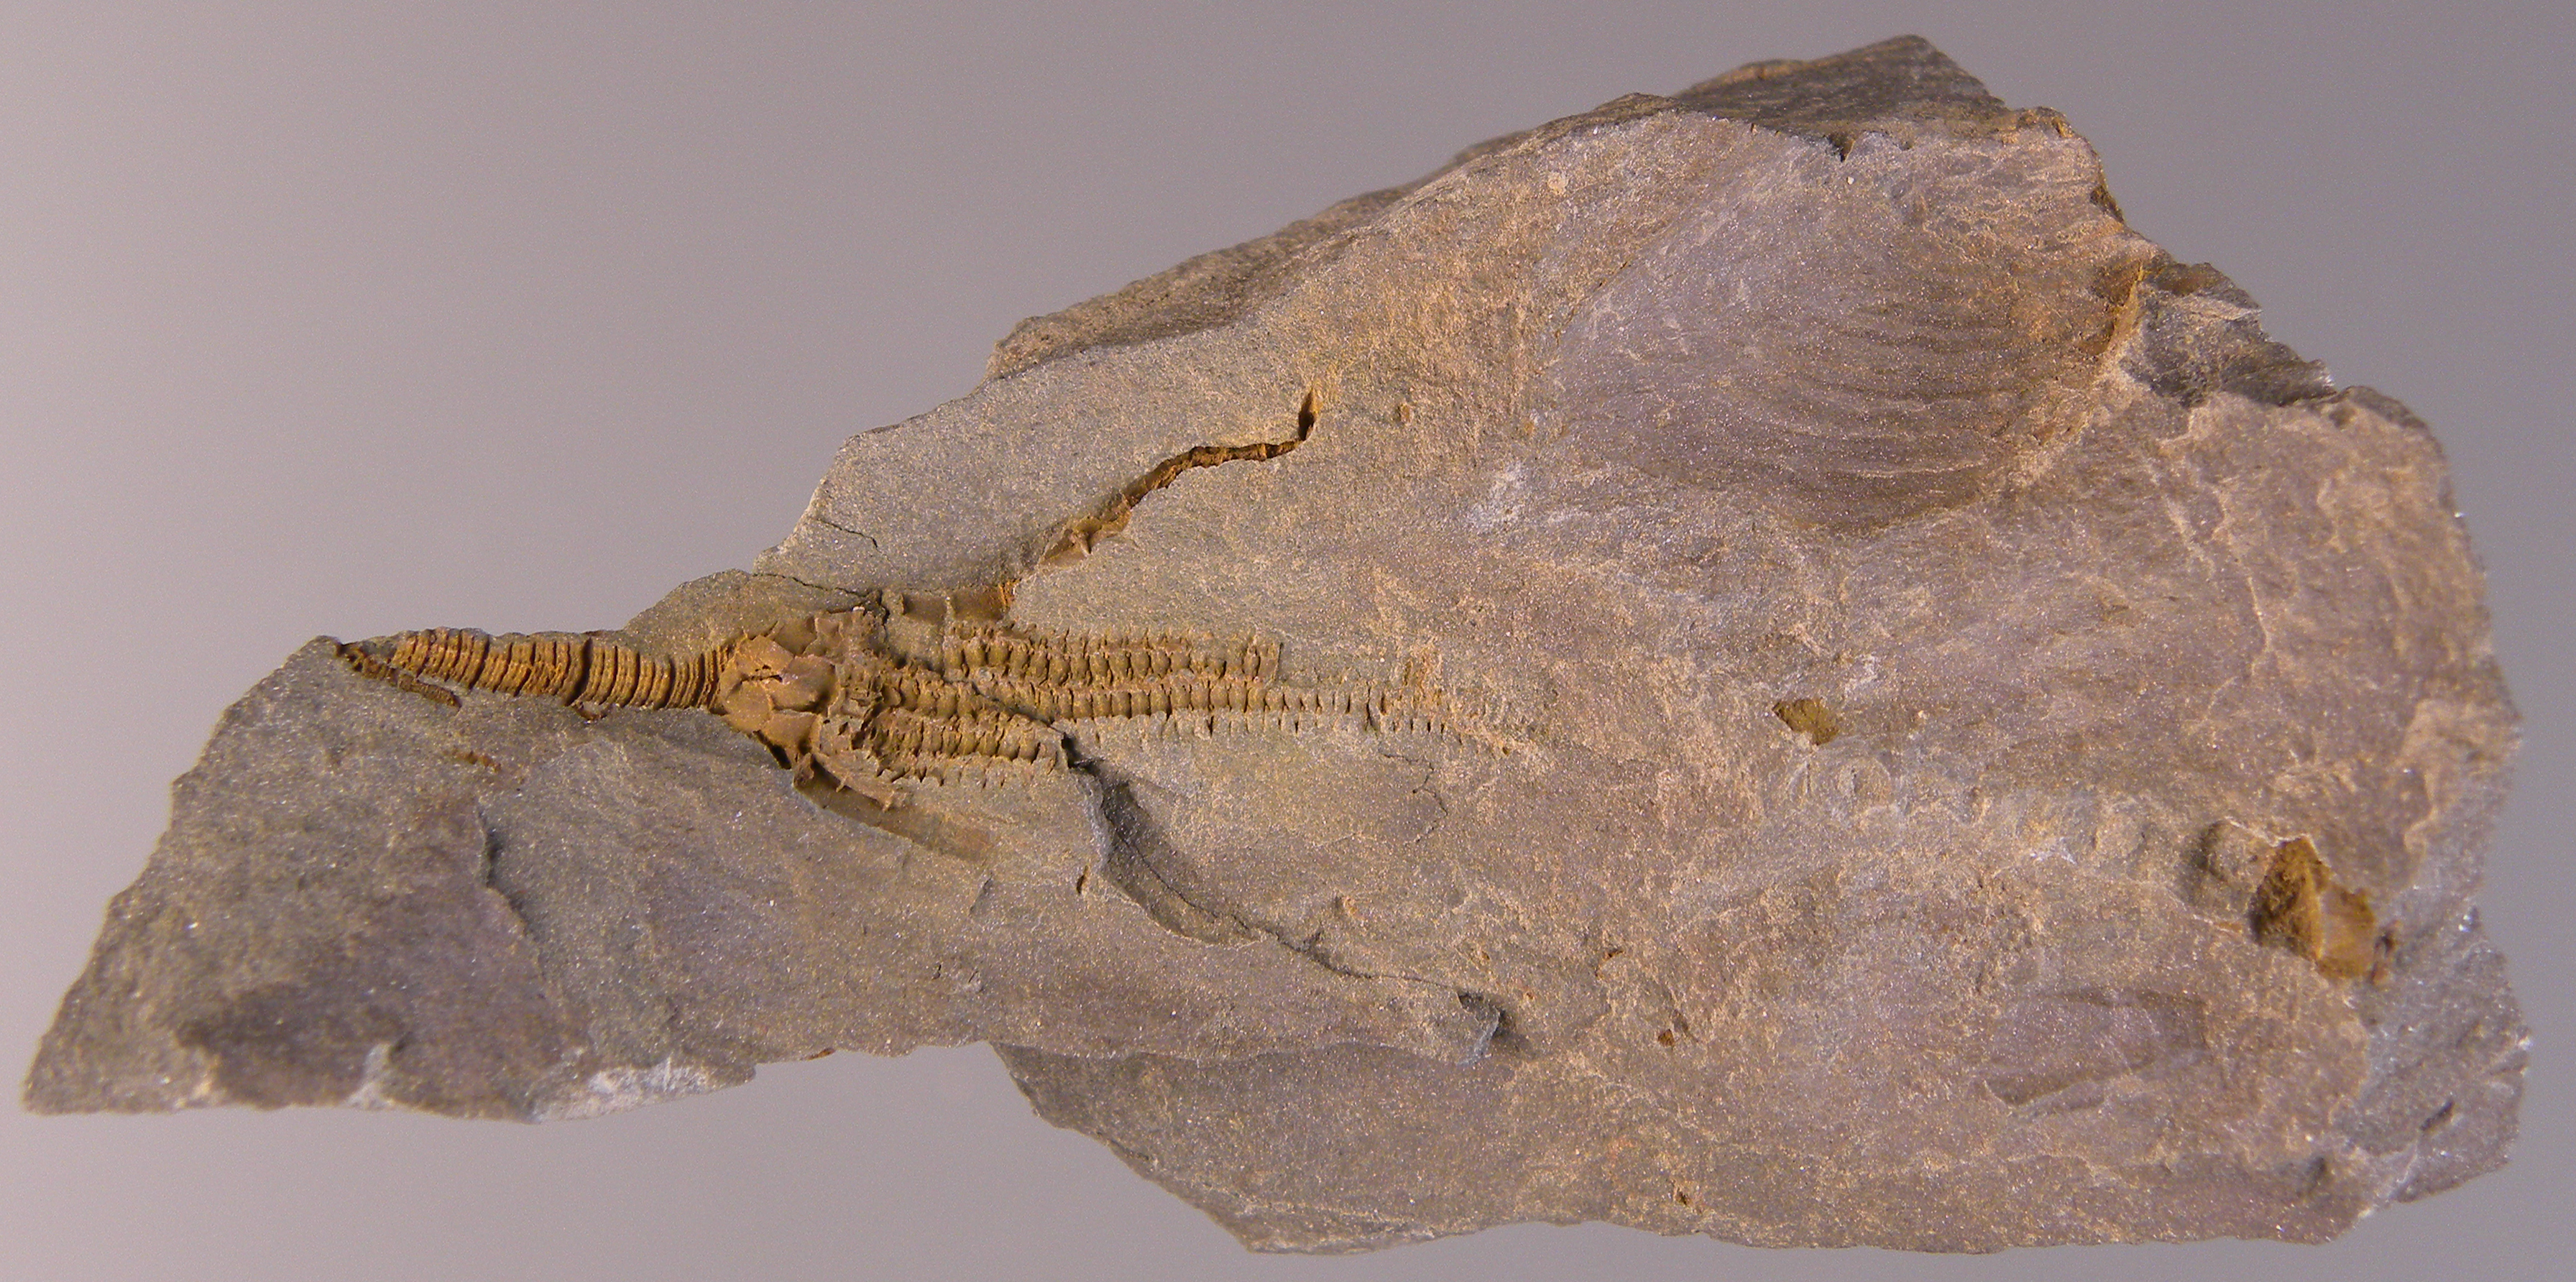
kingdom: Animalia
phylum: Echinodermata
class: Crinoidea
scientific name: Crinoidea
